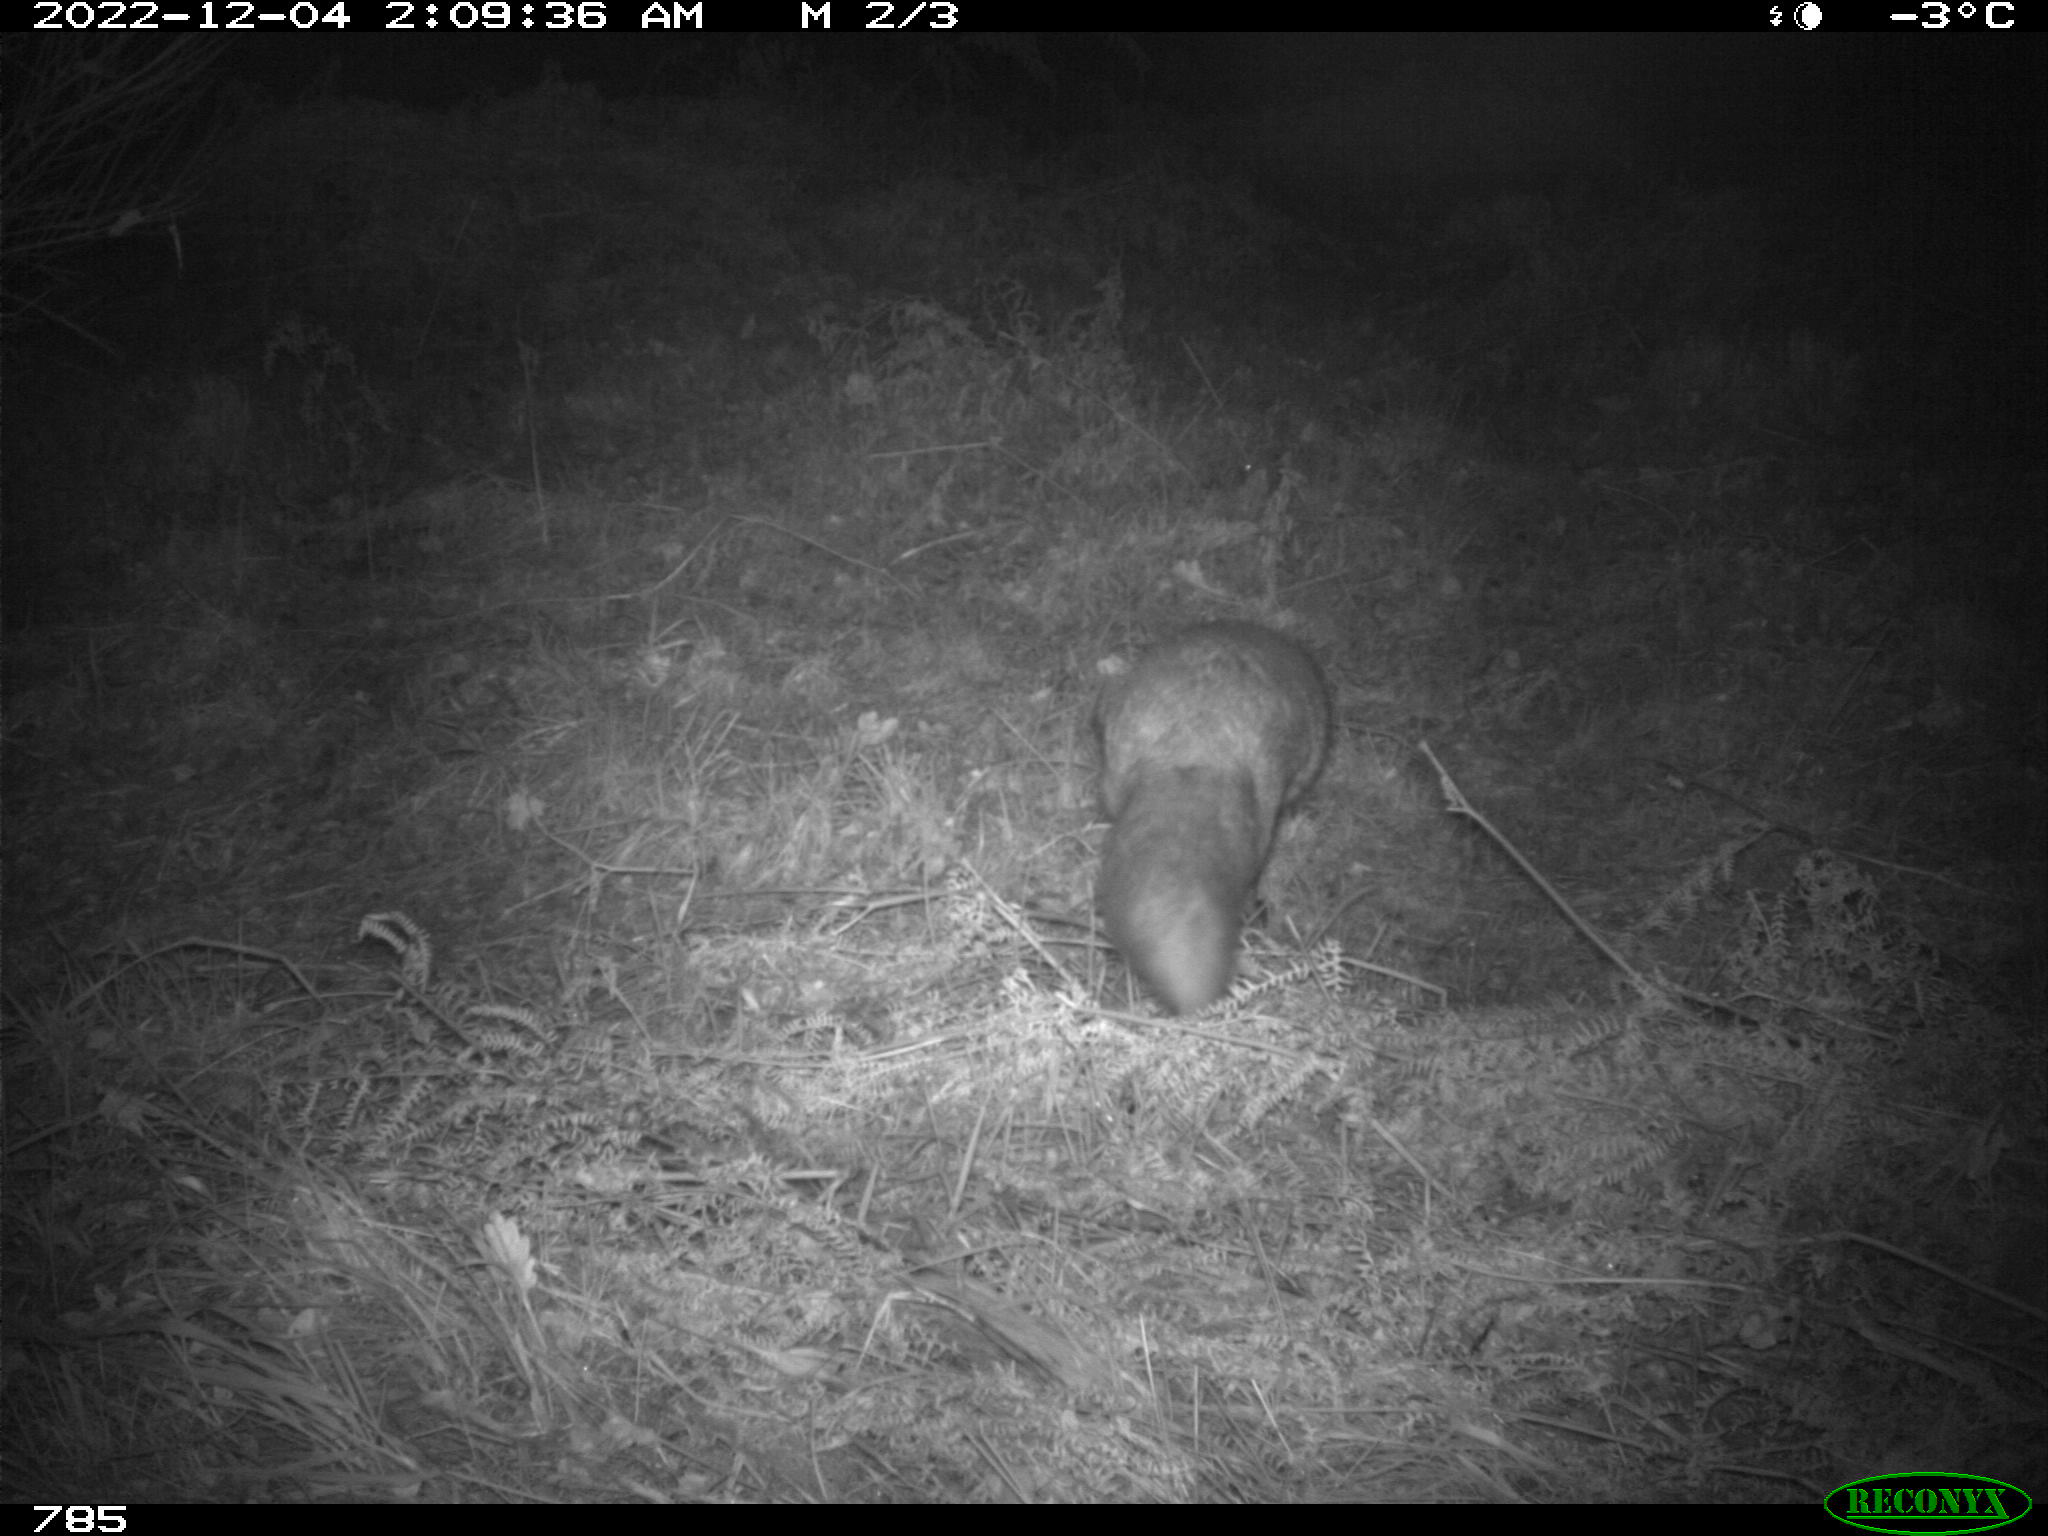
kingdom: Animalia
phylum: Chordata
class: Mammalia
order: Carnivora
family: Canidae
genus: Vulpes
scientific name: Vulpes vulpes
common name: Red fox
